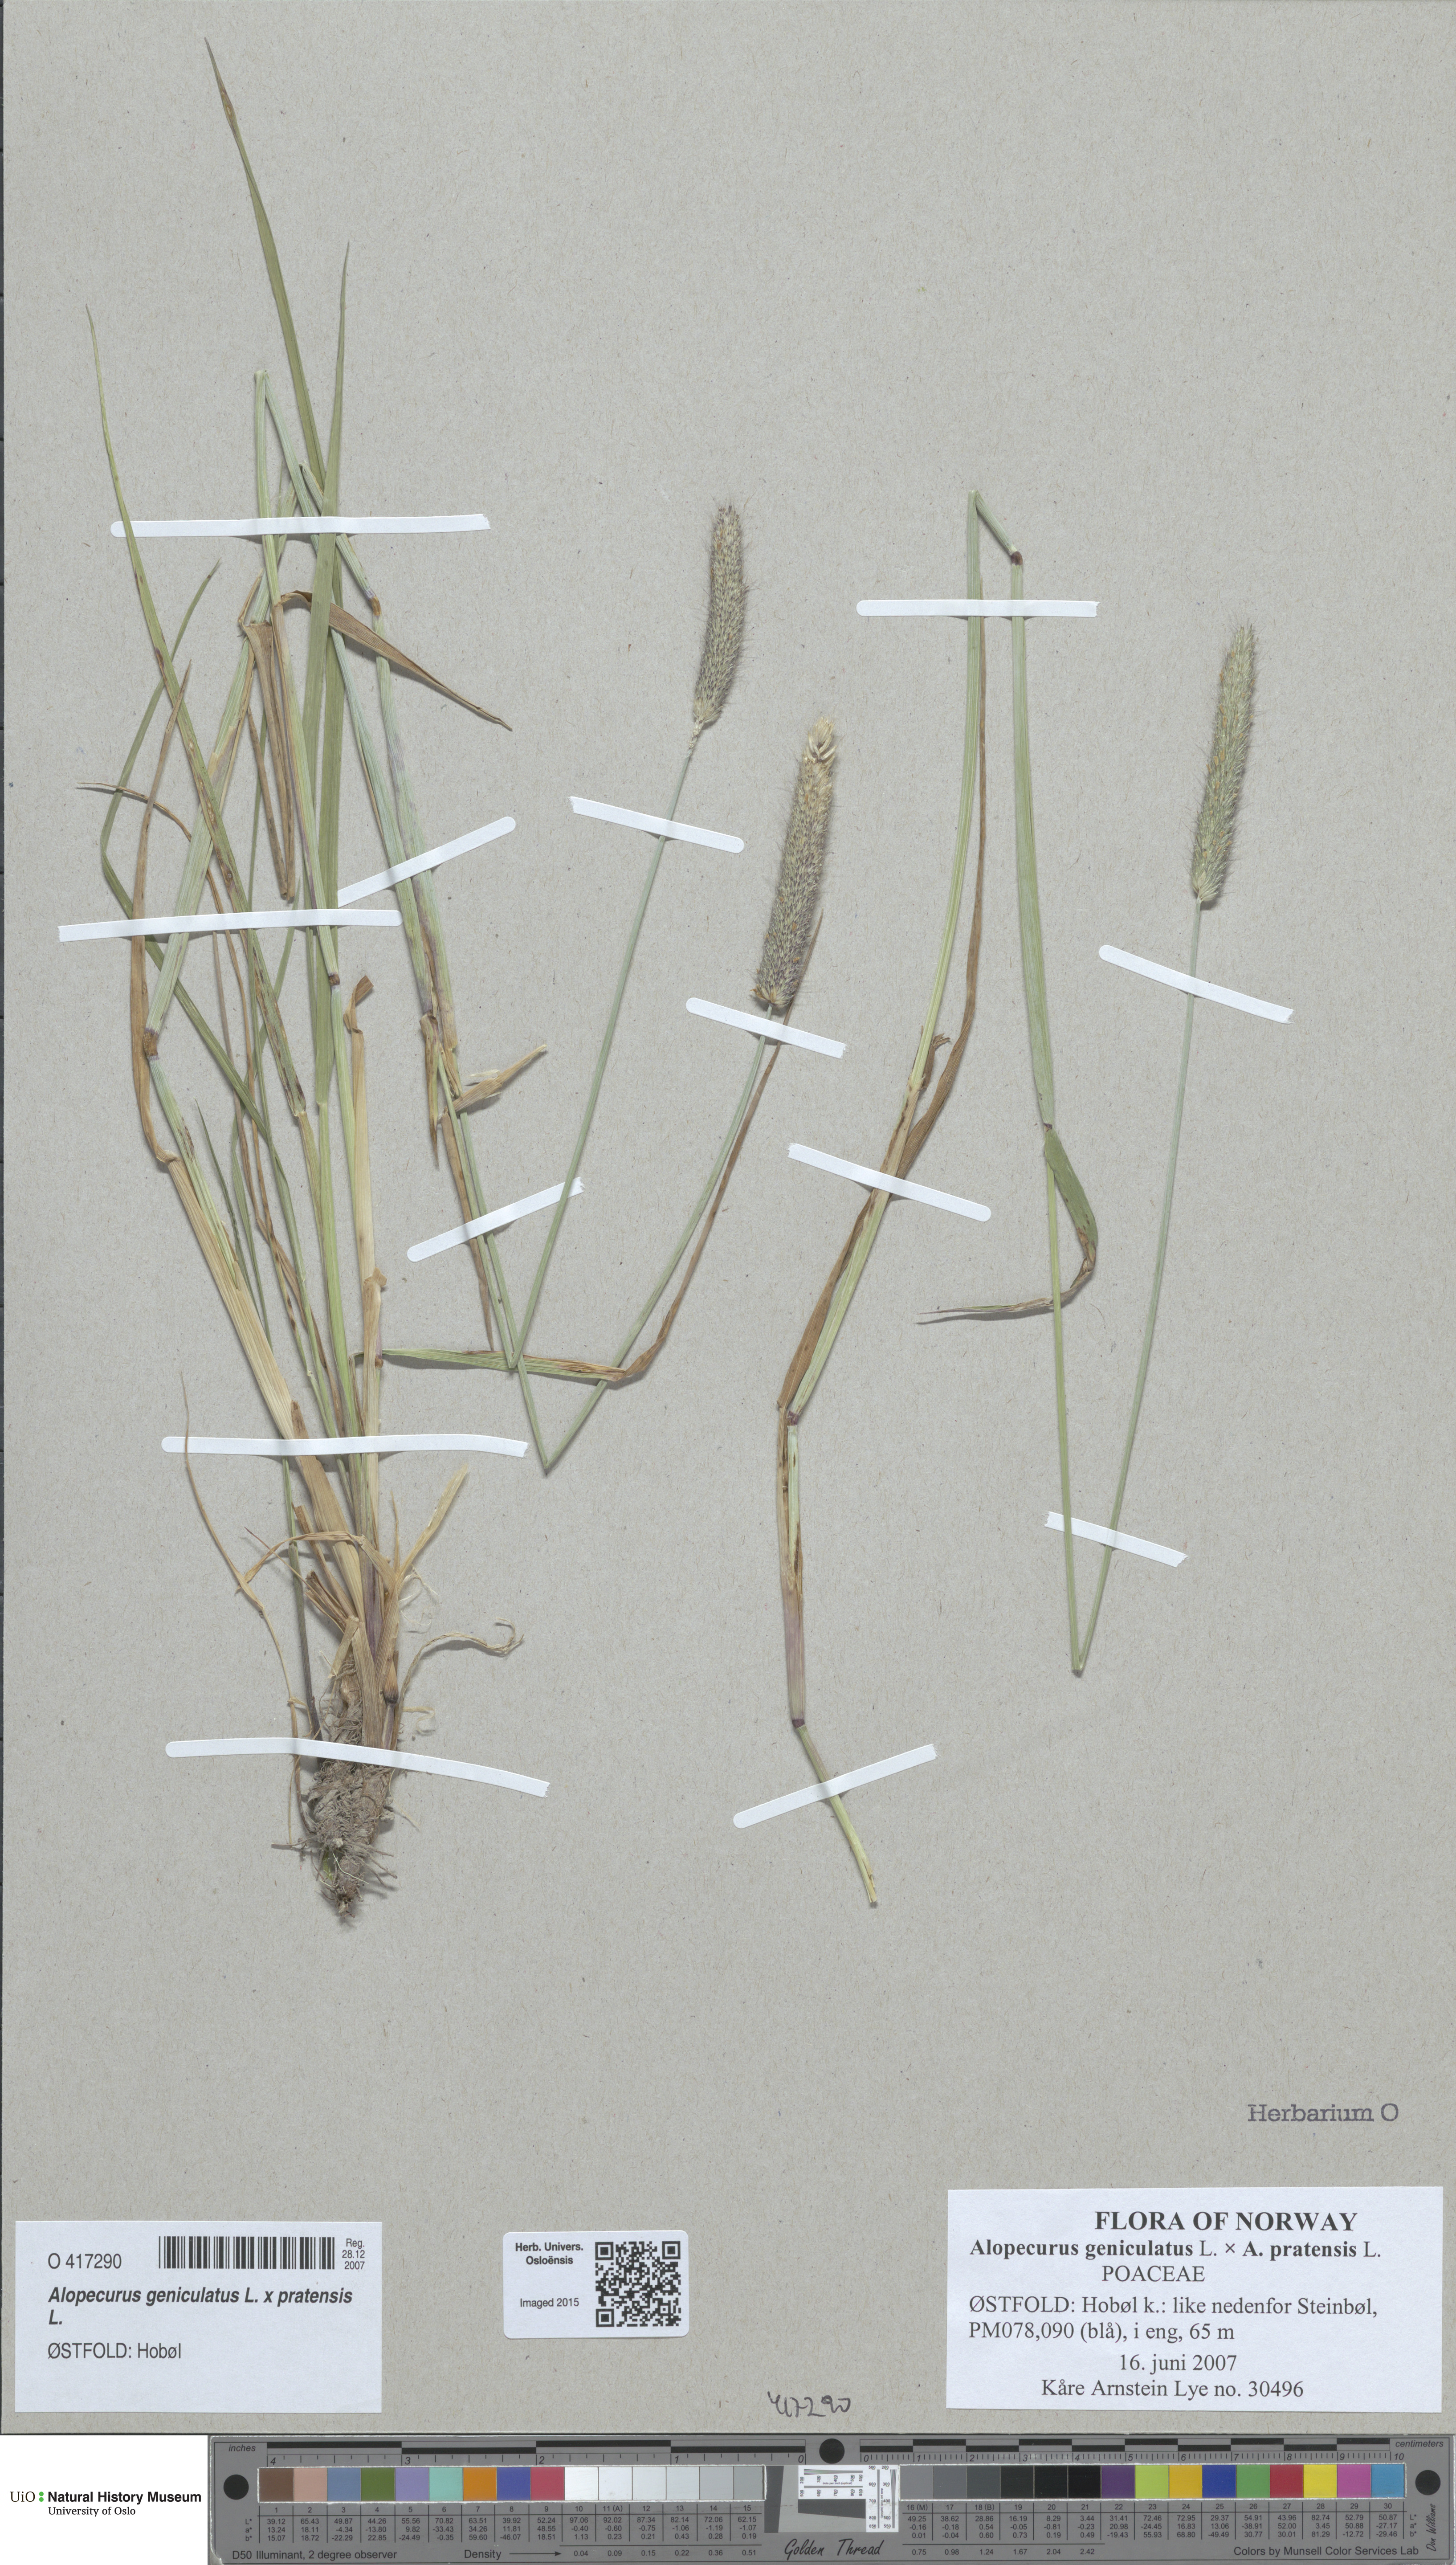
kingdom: Plantae
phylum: Tracheophyta
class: Liliopsida
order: Poales
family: Poaceae
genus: Alopecurus
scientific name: Alopecurus
